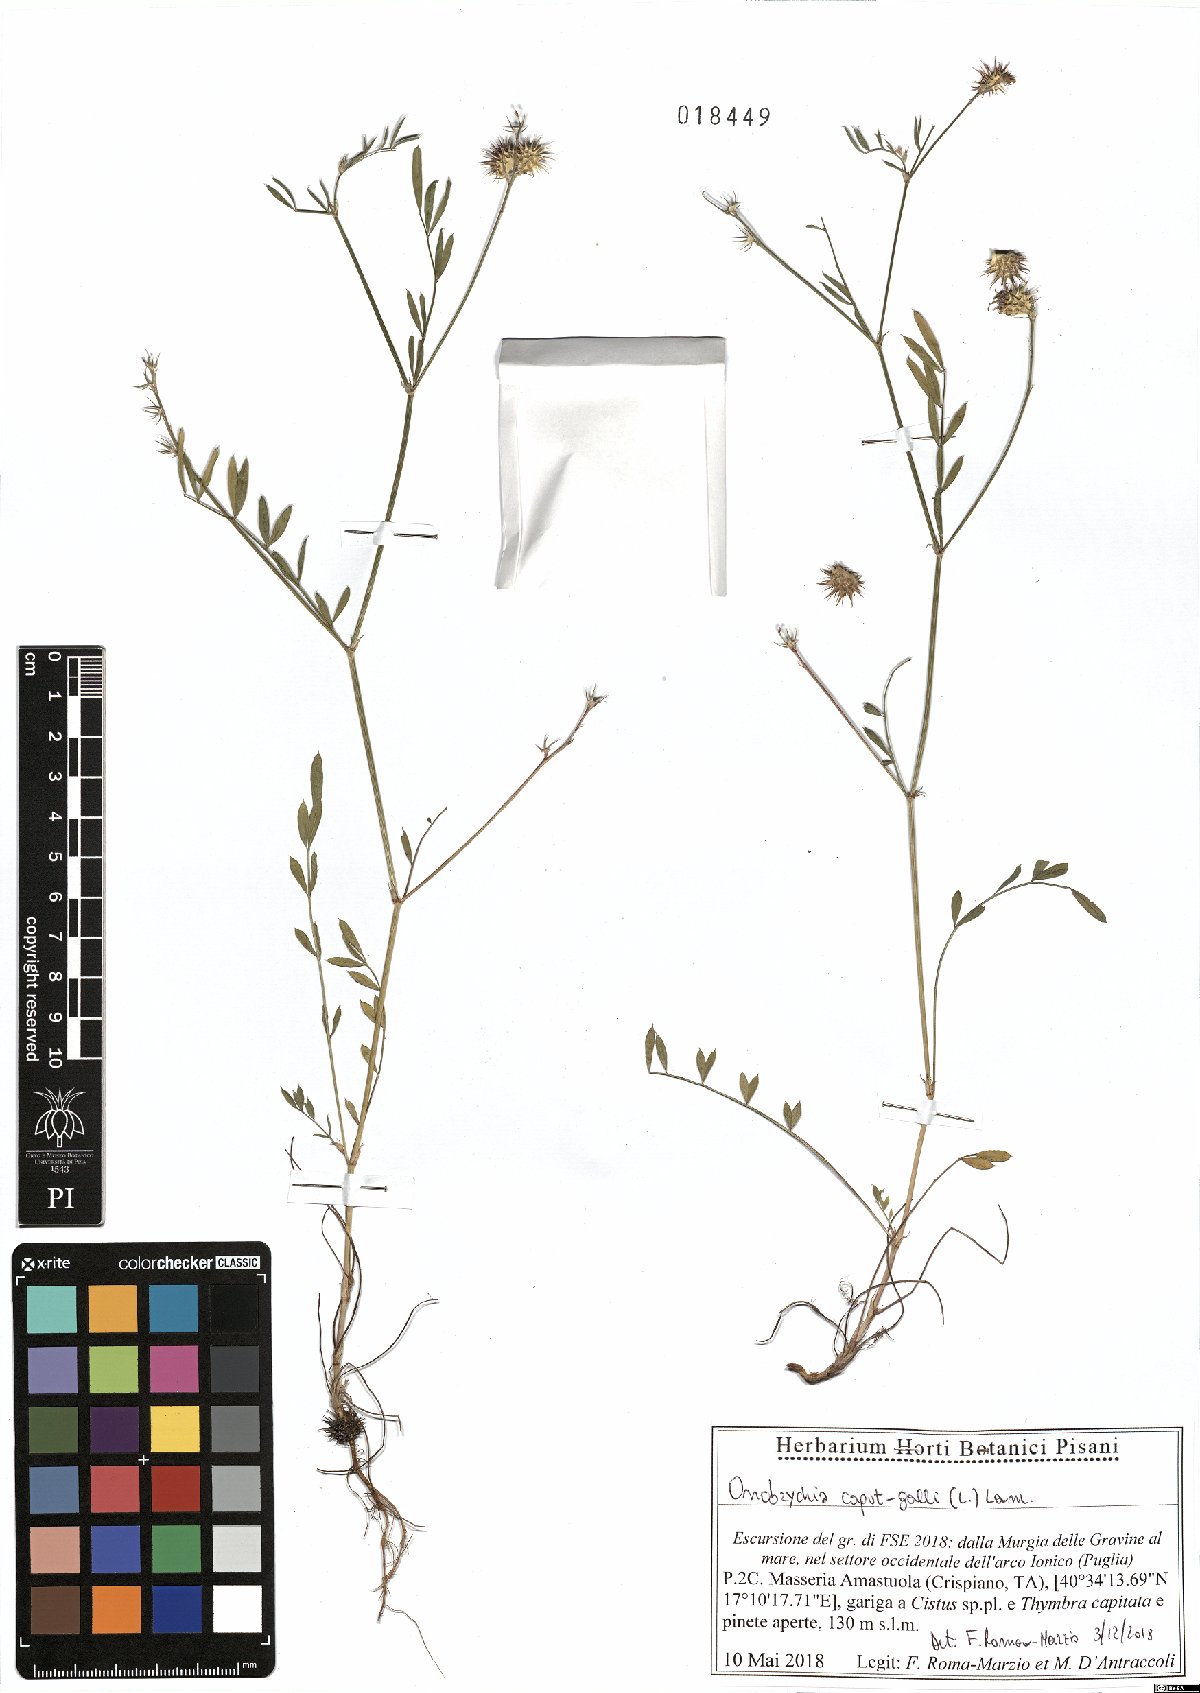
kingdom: Plantae
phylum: Tracheophyta
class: Magnoliopsida
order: Fabales
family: Fabaceae
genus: Onobrychis
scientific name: Onobrychis caput-galli
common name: Cockscomb sainfoin
